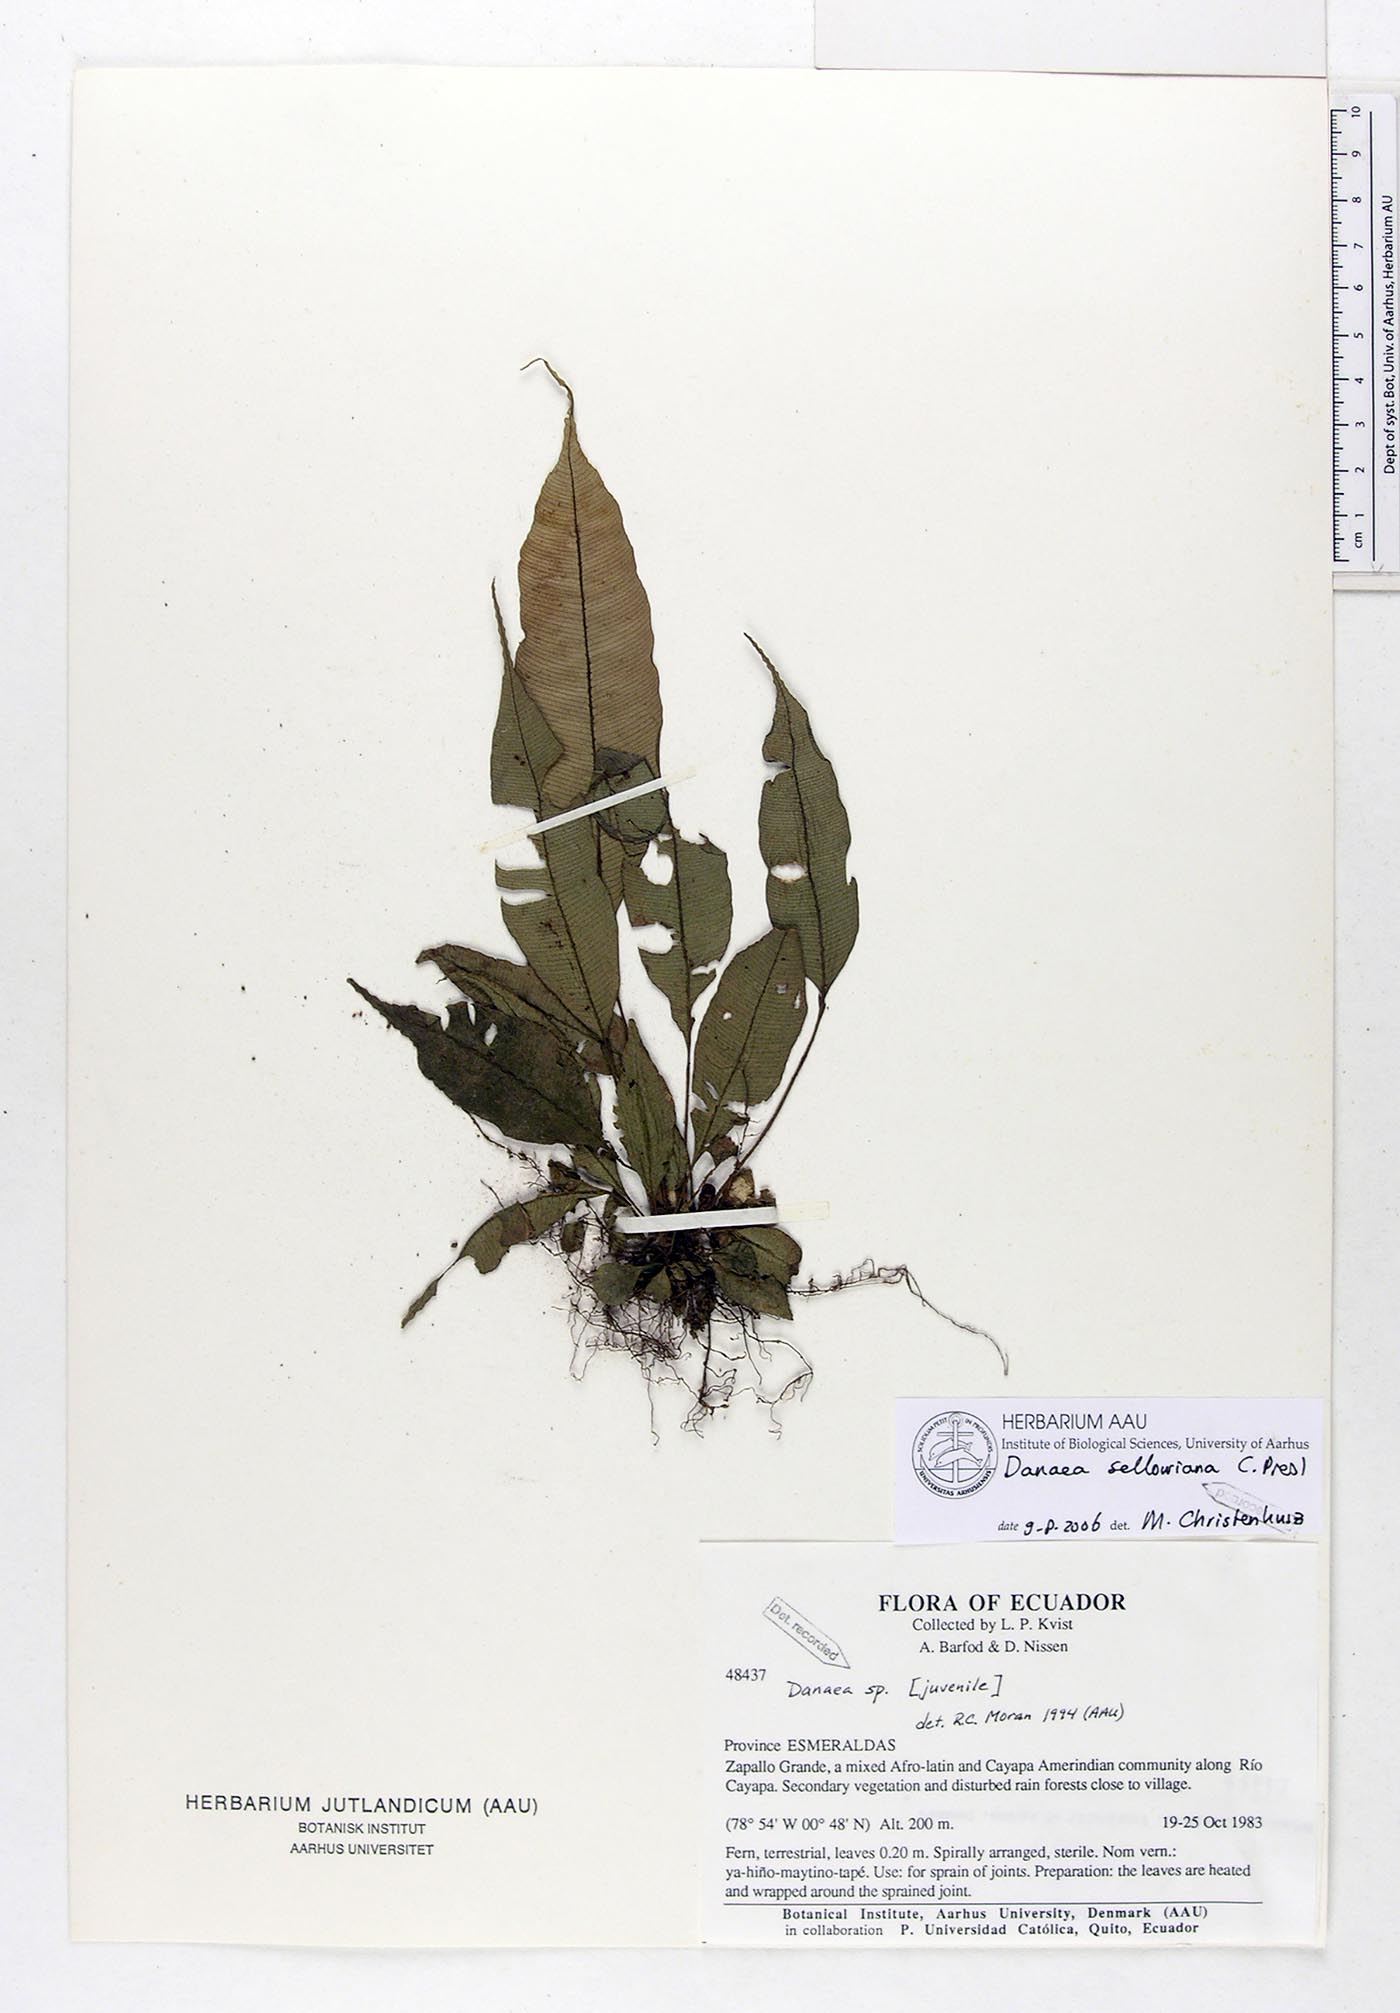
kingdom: Plantae
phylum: Tracheophyta
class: Polypodiopsida
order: Marattiales
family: Marattiaceae
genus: Danaea
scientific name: Danaea nodosa
